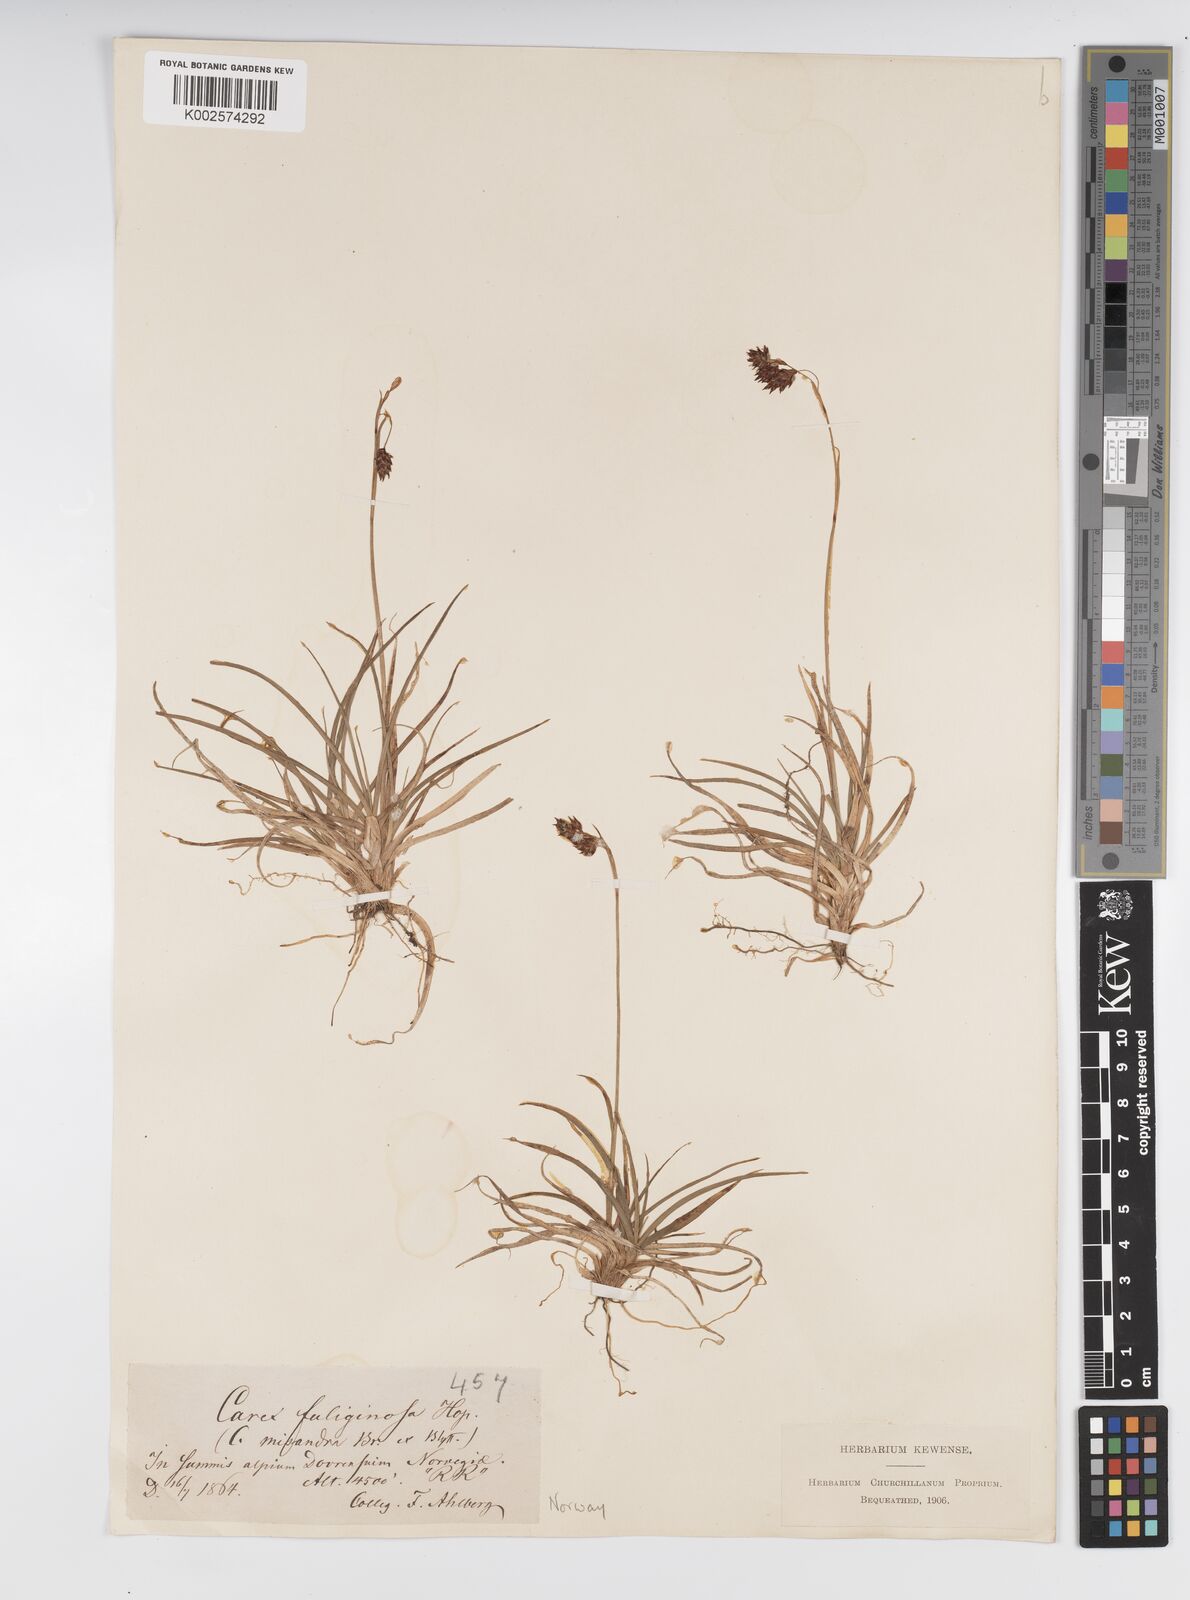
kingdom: Plantae
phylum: Tracheophyta
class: Liliopsida
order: Poales
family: Cyperaceae
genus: Carex
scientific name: Carex fuliginosa
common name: Few-flowered sedge
